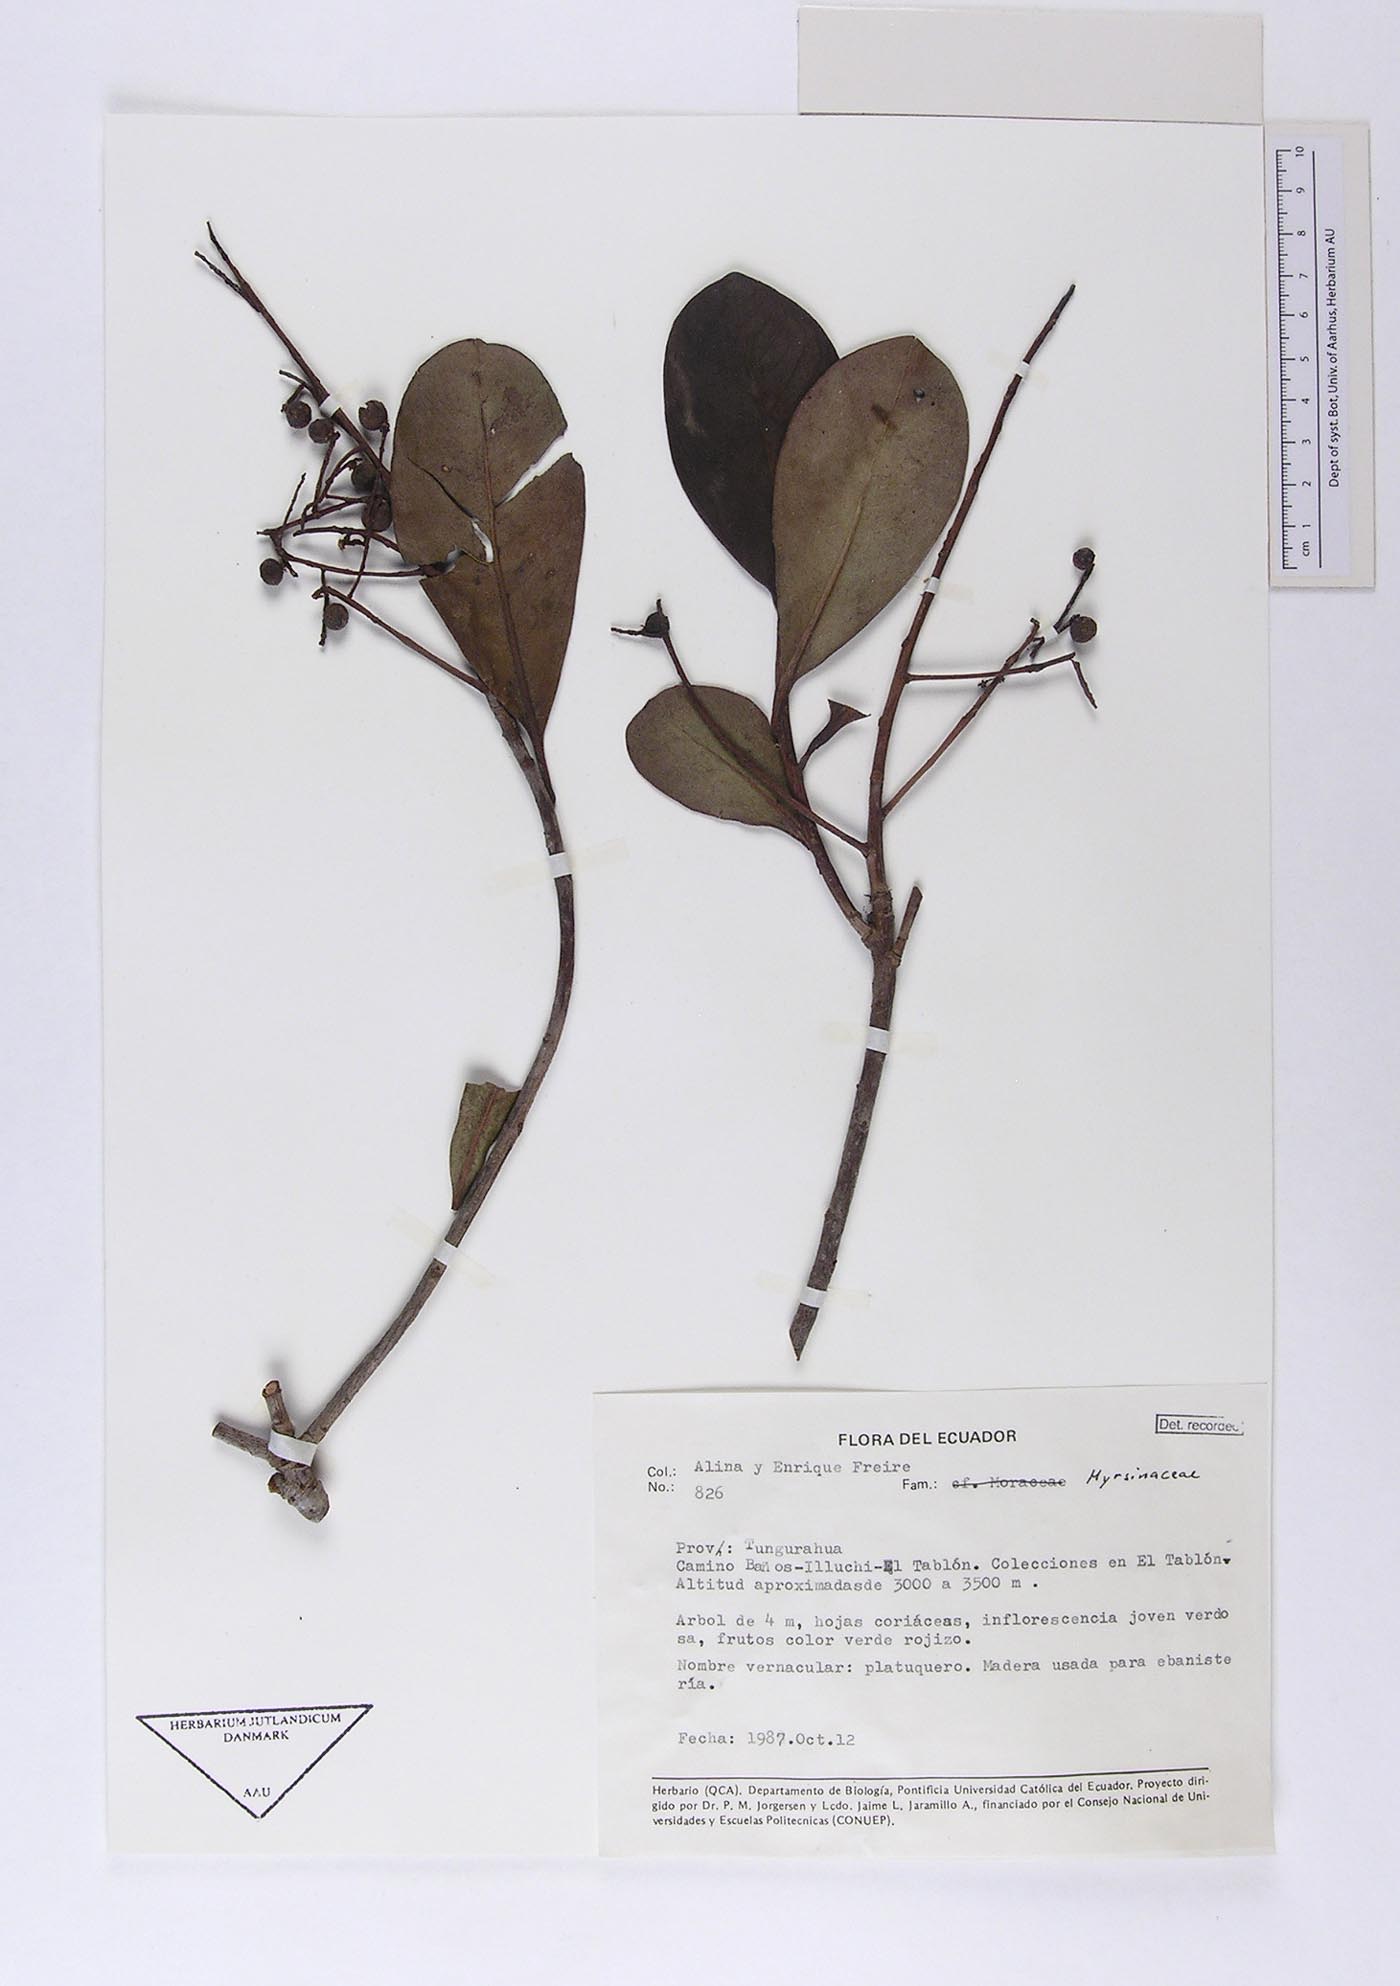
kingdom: Plantae
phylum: Tracheophyta
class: Magnoliopsida
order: Ericales
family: Primulaceae
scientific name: Primulaceae
